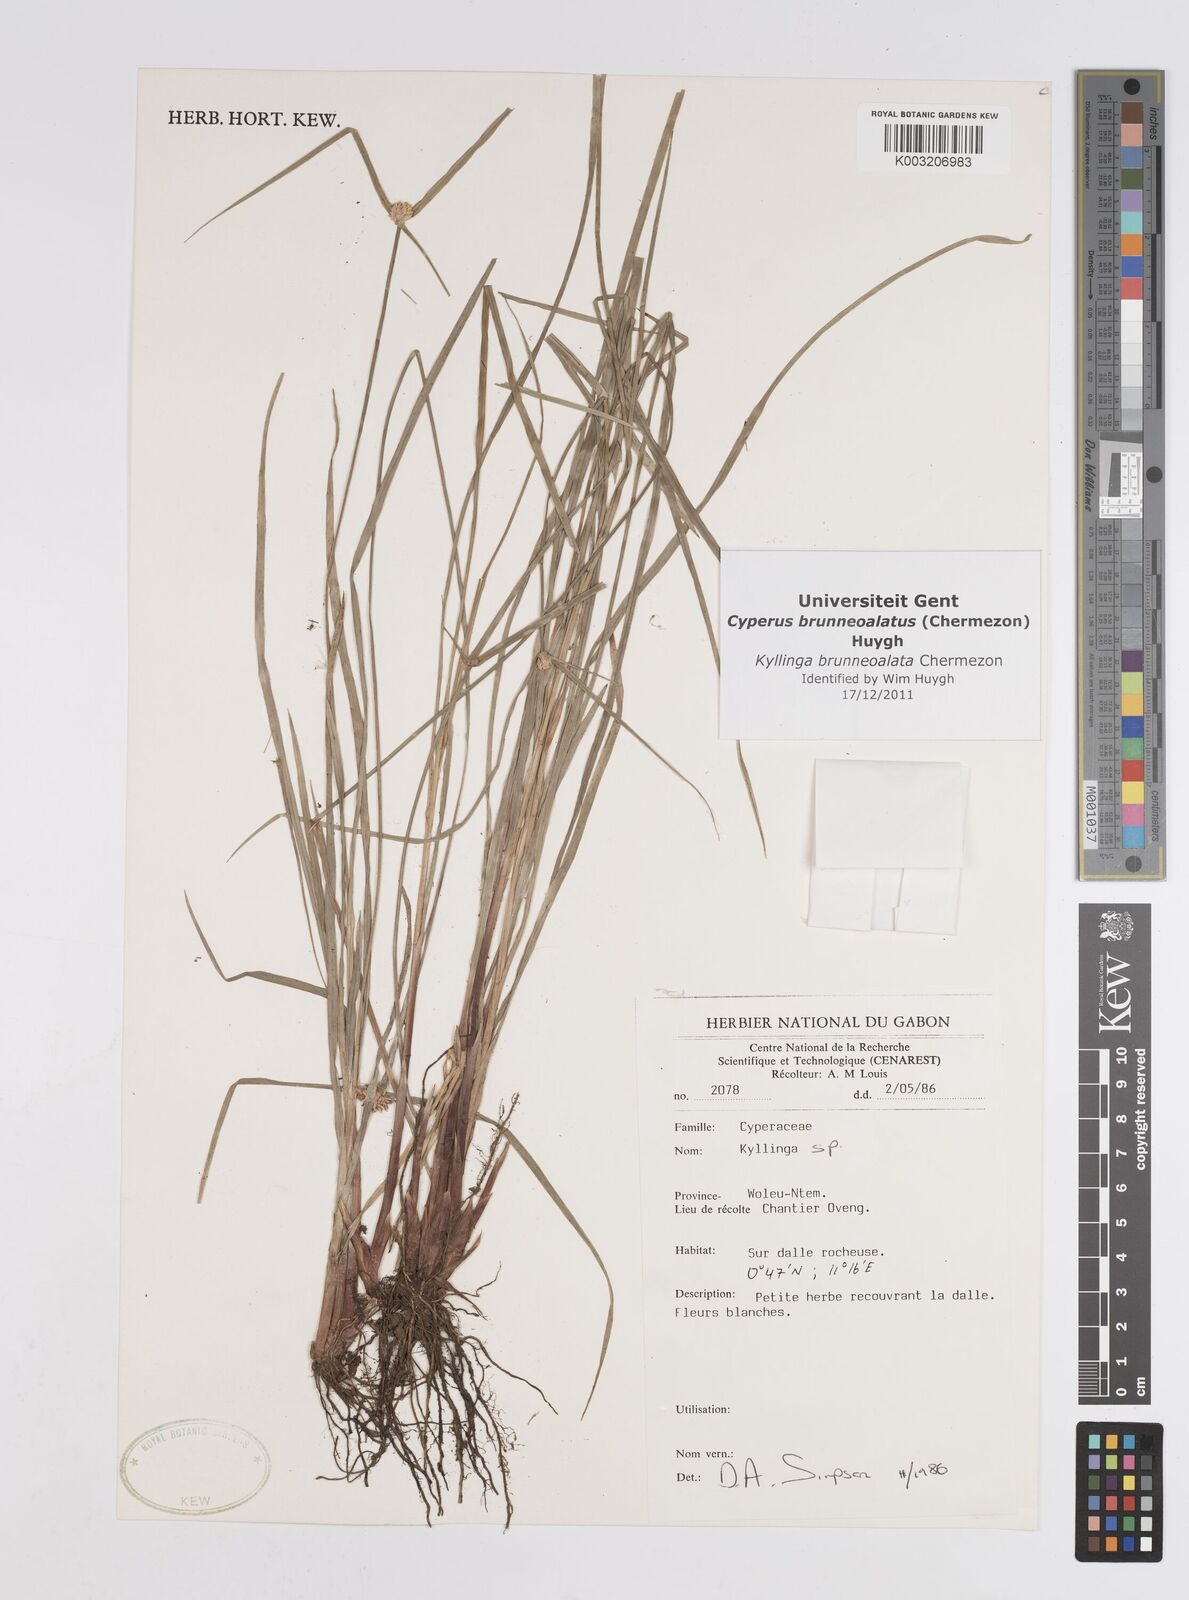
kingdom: Plantae
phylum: Tracheophyta
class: Liliopsida
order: Poales
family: Cyperaceae
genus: Cyperus
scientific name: Cyperus brunneoalatus
